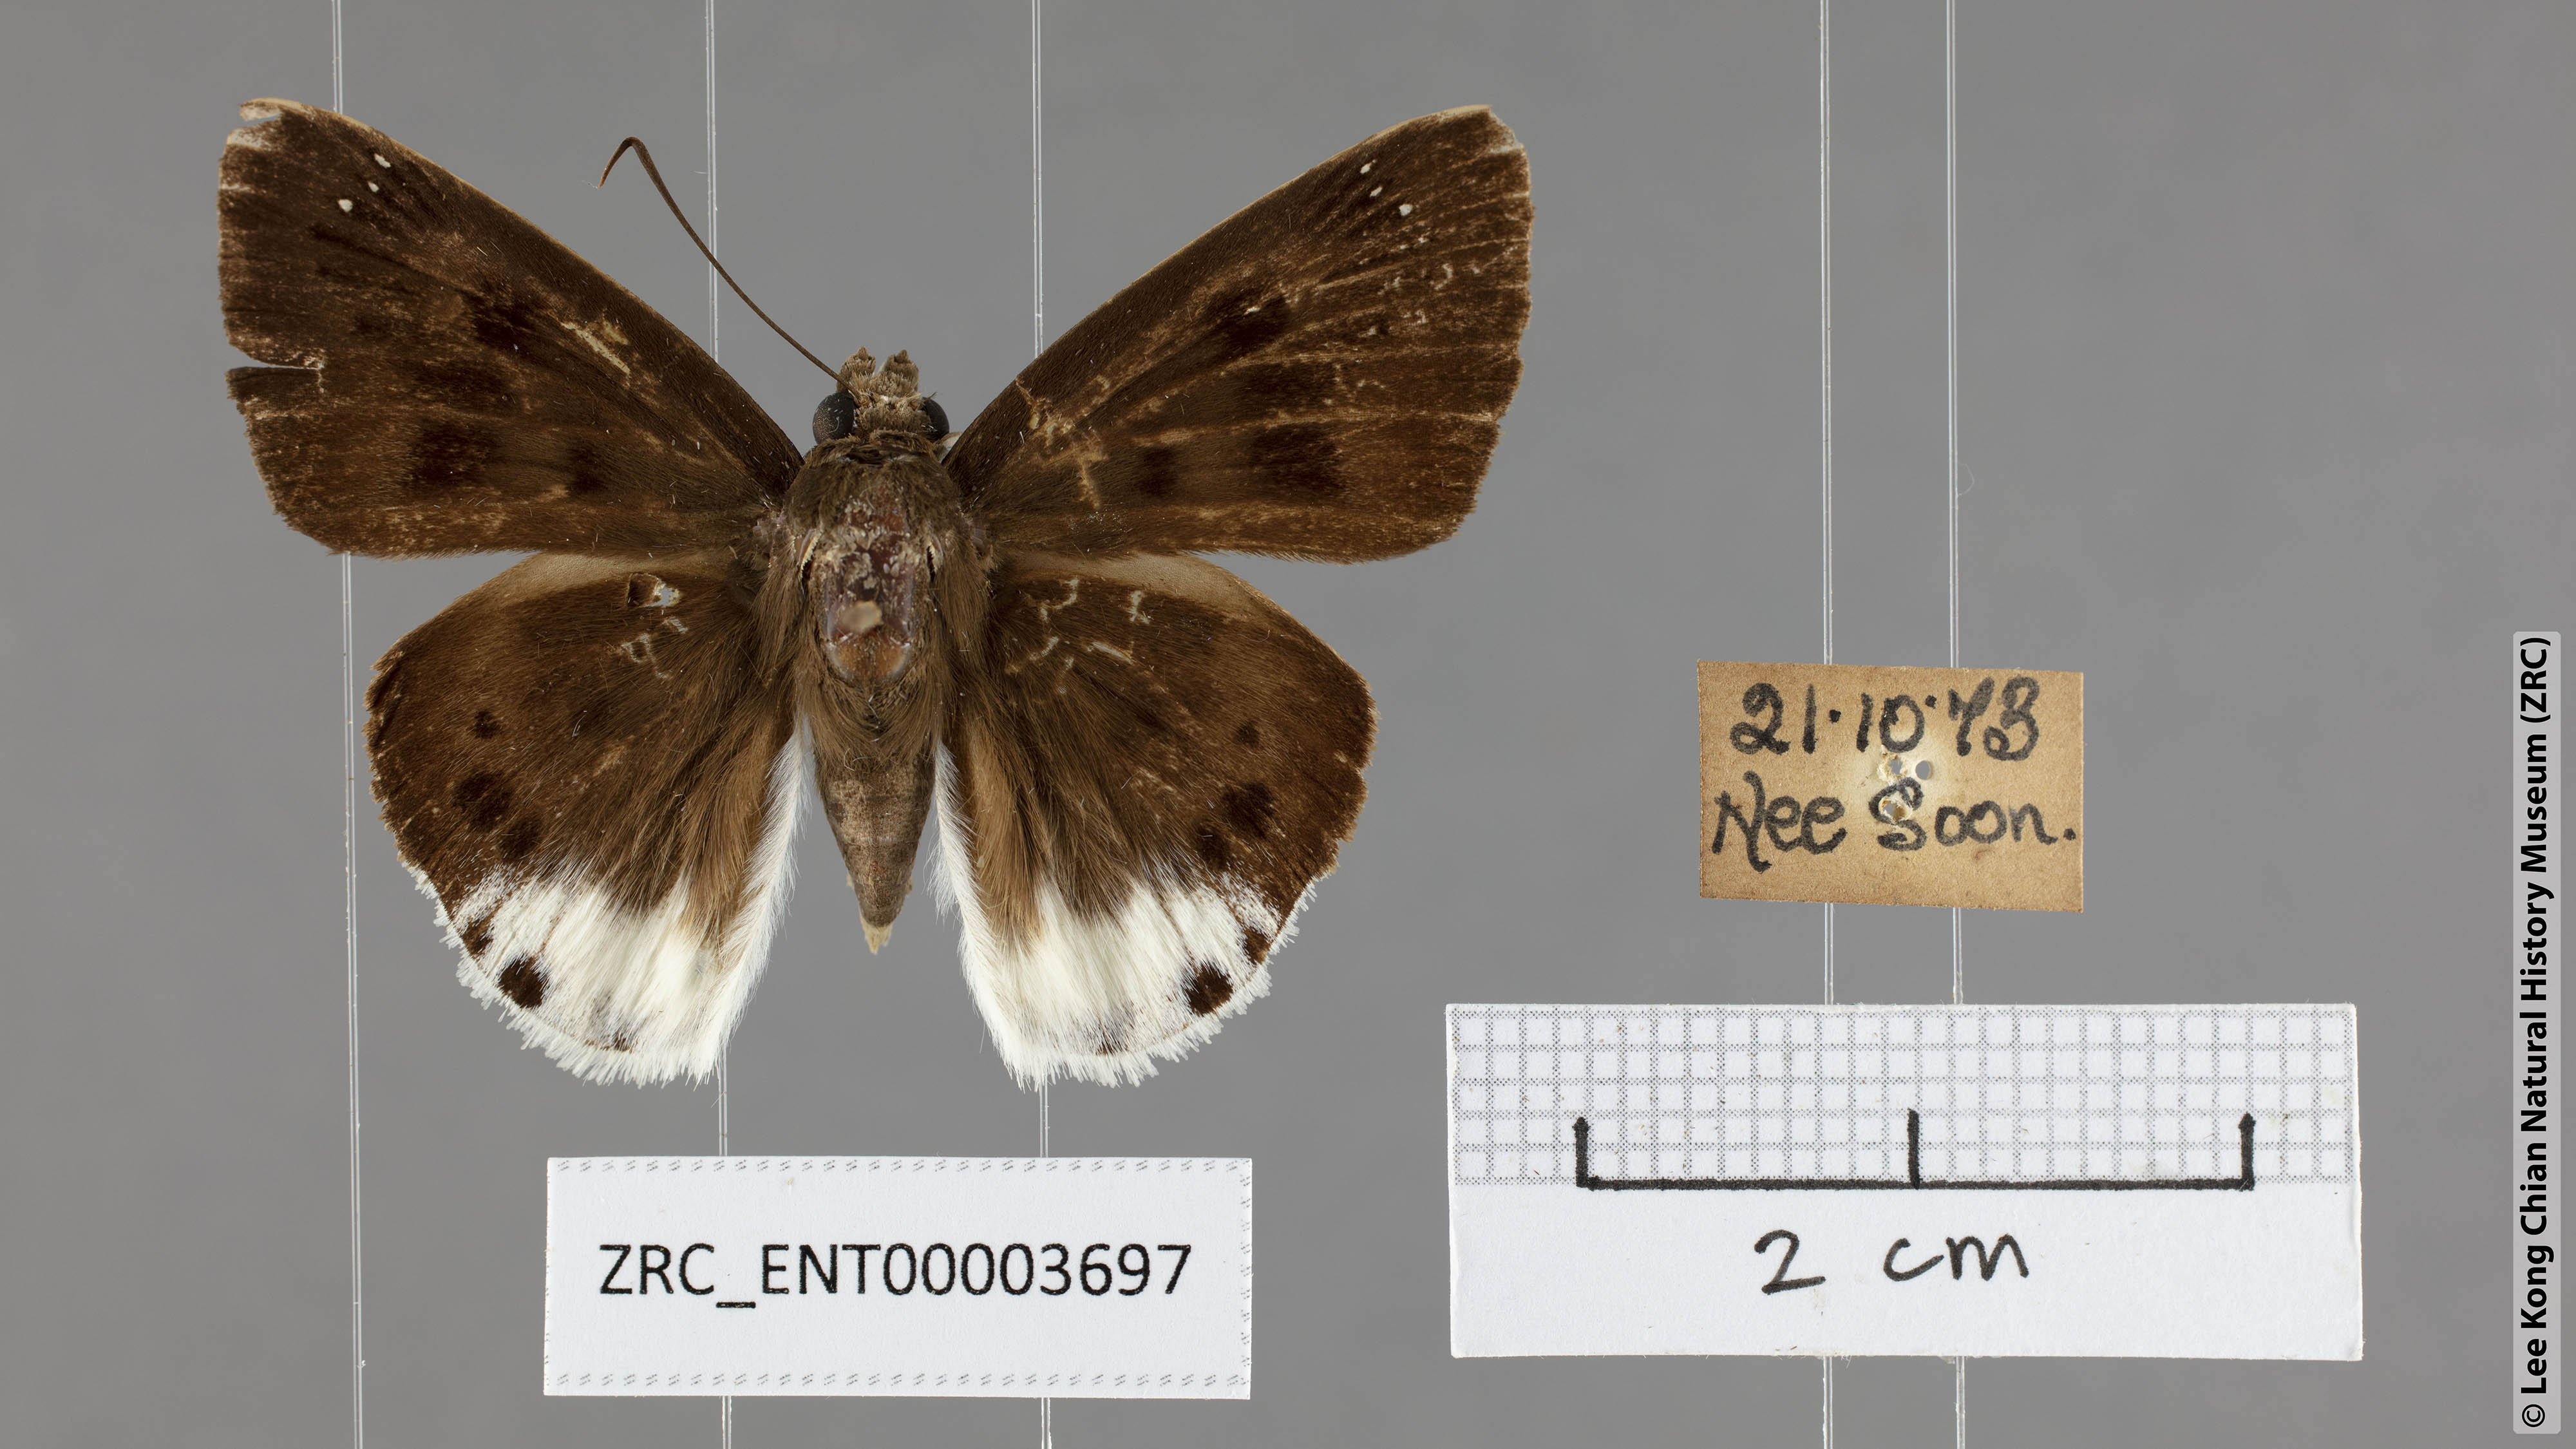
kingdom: Animalia
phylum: Arthropoda
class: Insecta
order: Lepidoptera
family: Hesperiidae
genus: Tagiades
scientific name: Tagiades gana
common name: Suffused snow flat
